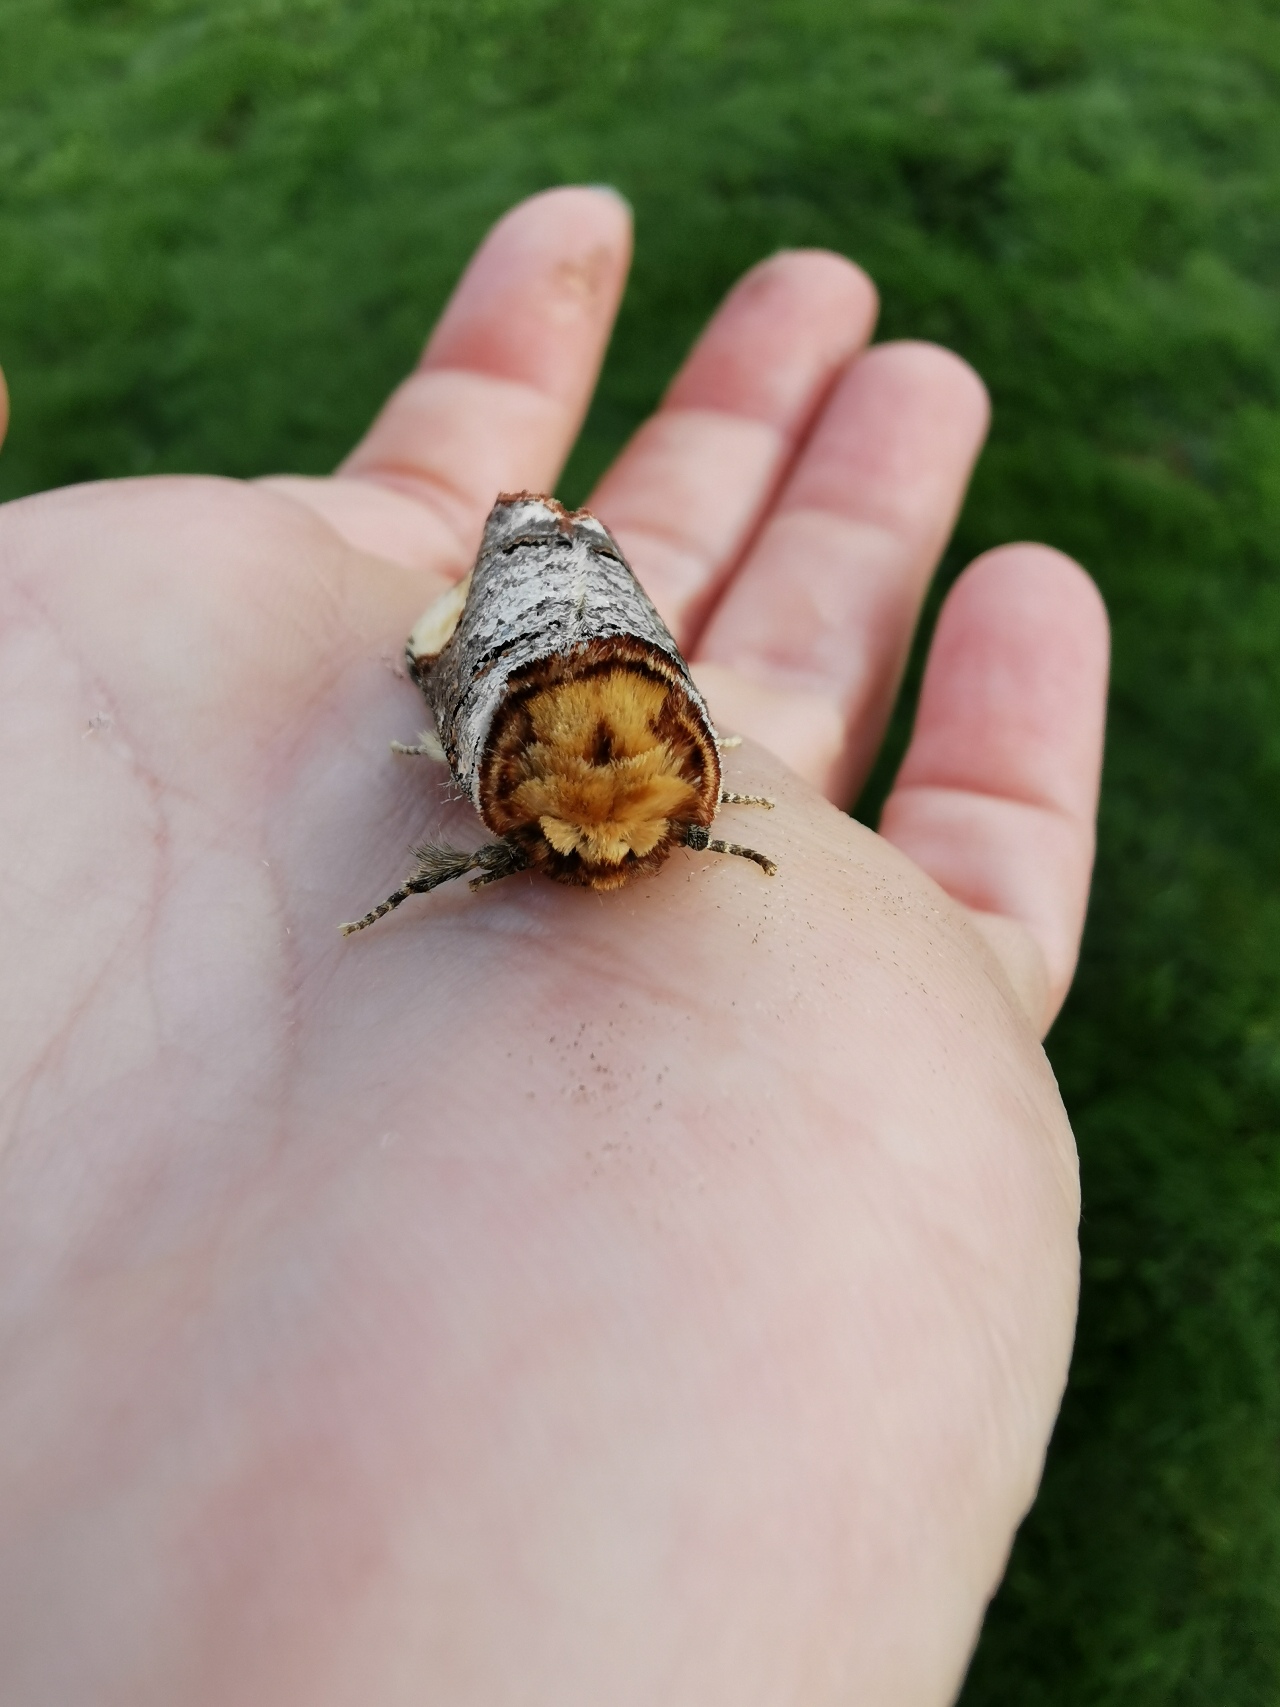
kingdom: Animalia
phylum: Arthropoda
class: Insecta
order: Lepidoptera
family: Notodontidae
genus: Phalera
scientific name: Phalera bucephala
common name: Måneplet
